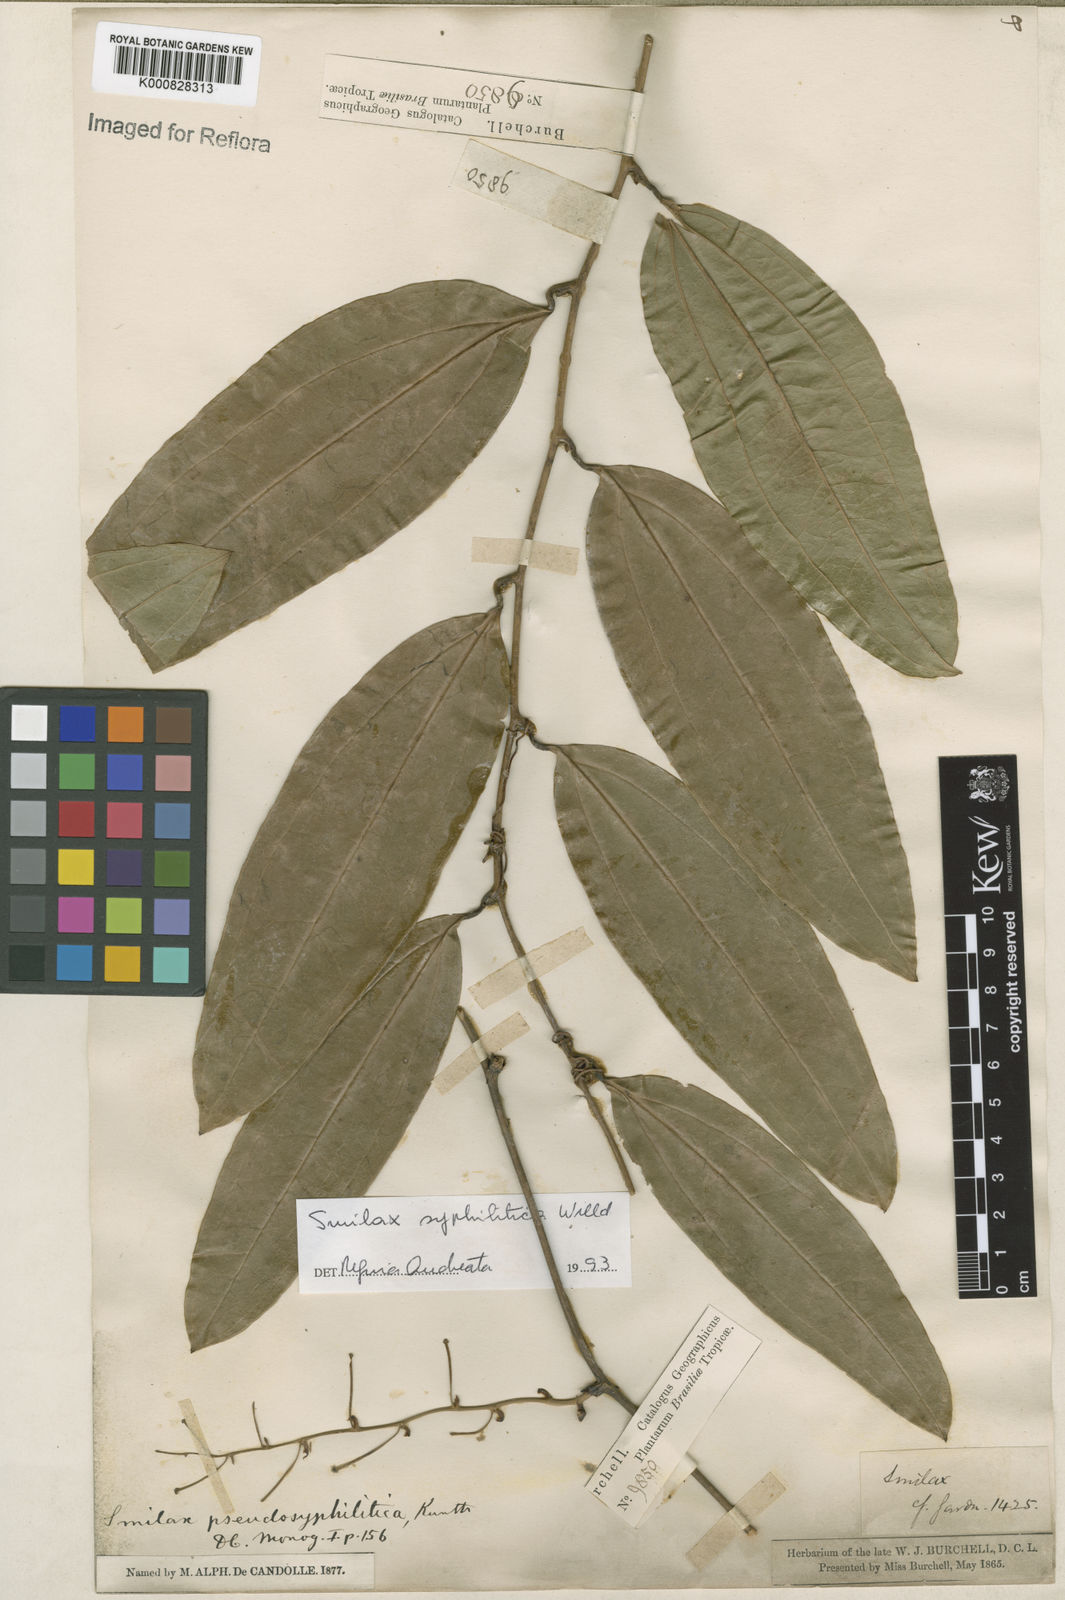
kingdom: Plantae
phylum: Tracheophyta
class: Liliopsida
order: Liliales
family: Smilacaceae
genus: Smilax
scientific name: Smilax siphilitica
